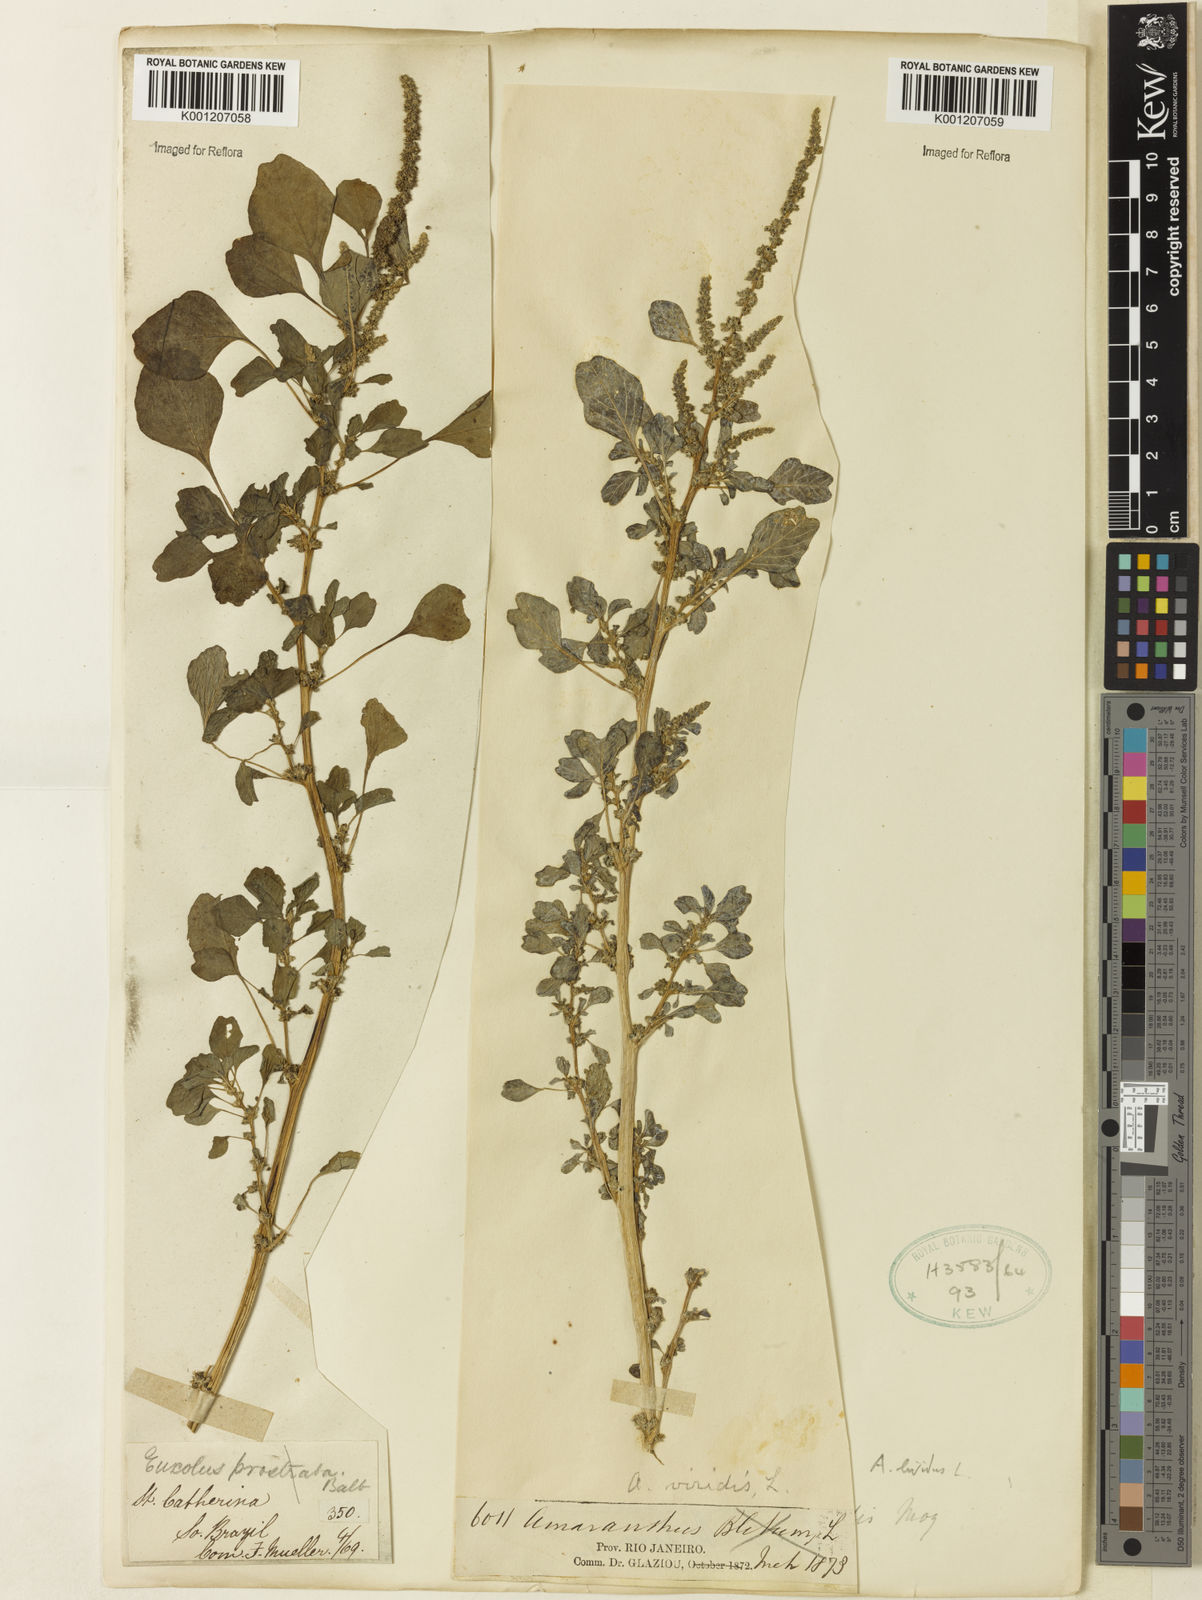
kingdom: Plantae
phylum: Tracheophyta
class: Magnoliopsida
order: Caryophyllales
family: Amaranthaceae
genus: Amaranthus
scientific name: Amaranthus blitum
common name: Purple amaranth
